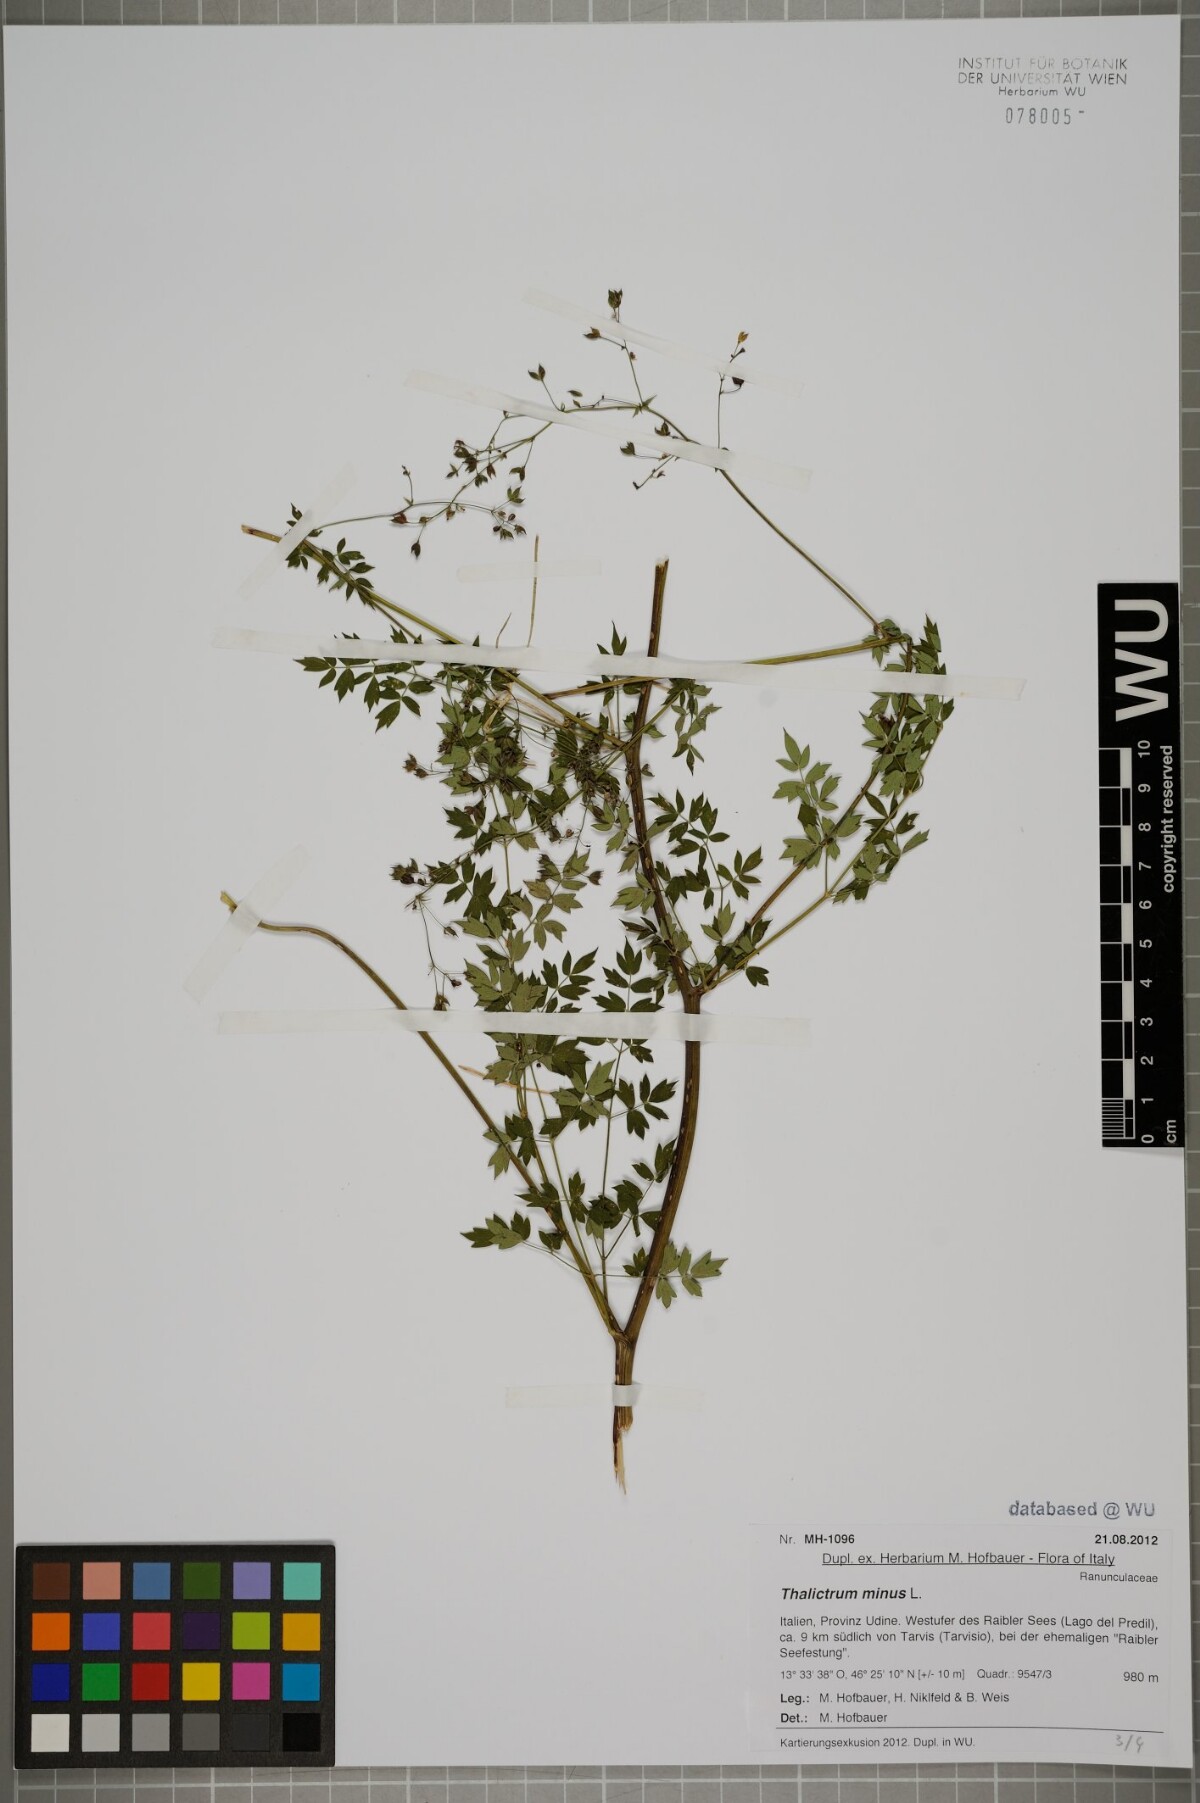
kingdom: Plantae
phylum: Tracheophyta
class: Magnoliopsida
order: Ranunculales
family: Ranunculaceae
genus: Thalictrum
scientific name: Thalictrum minus
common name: Lesser meadow-rue
